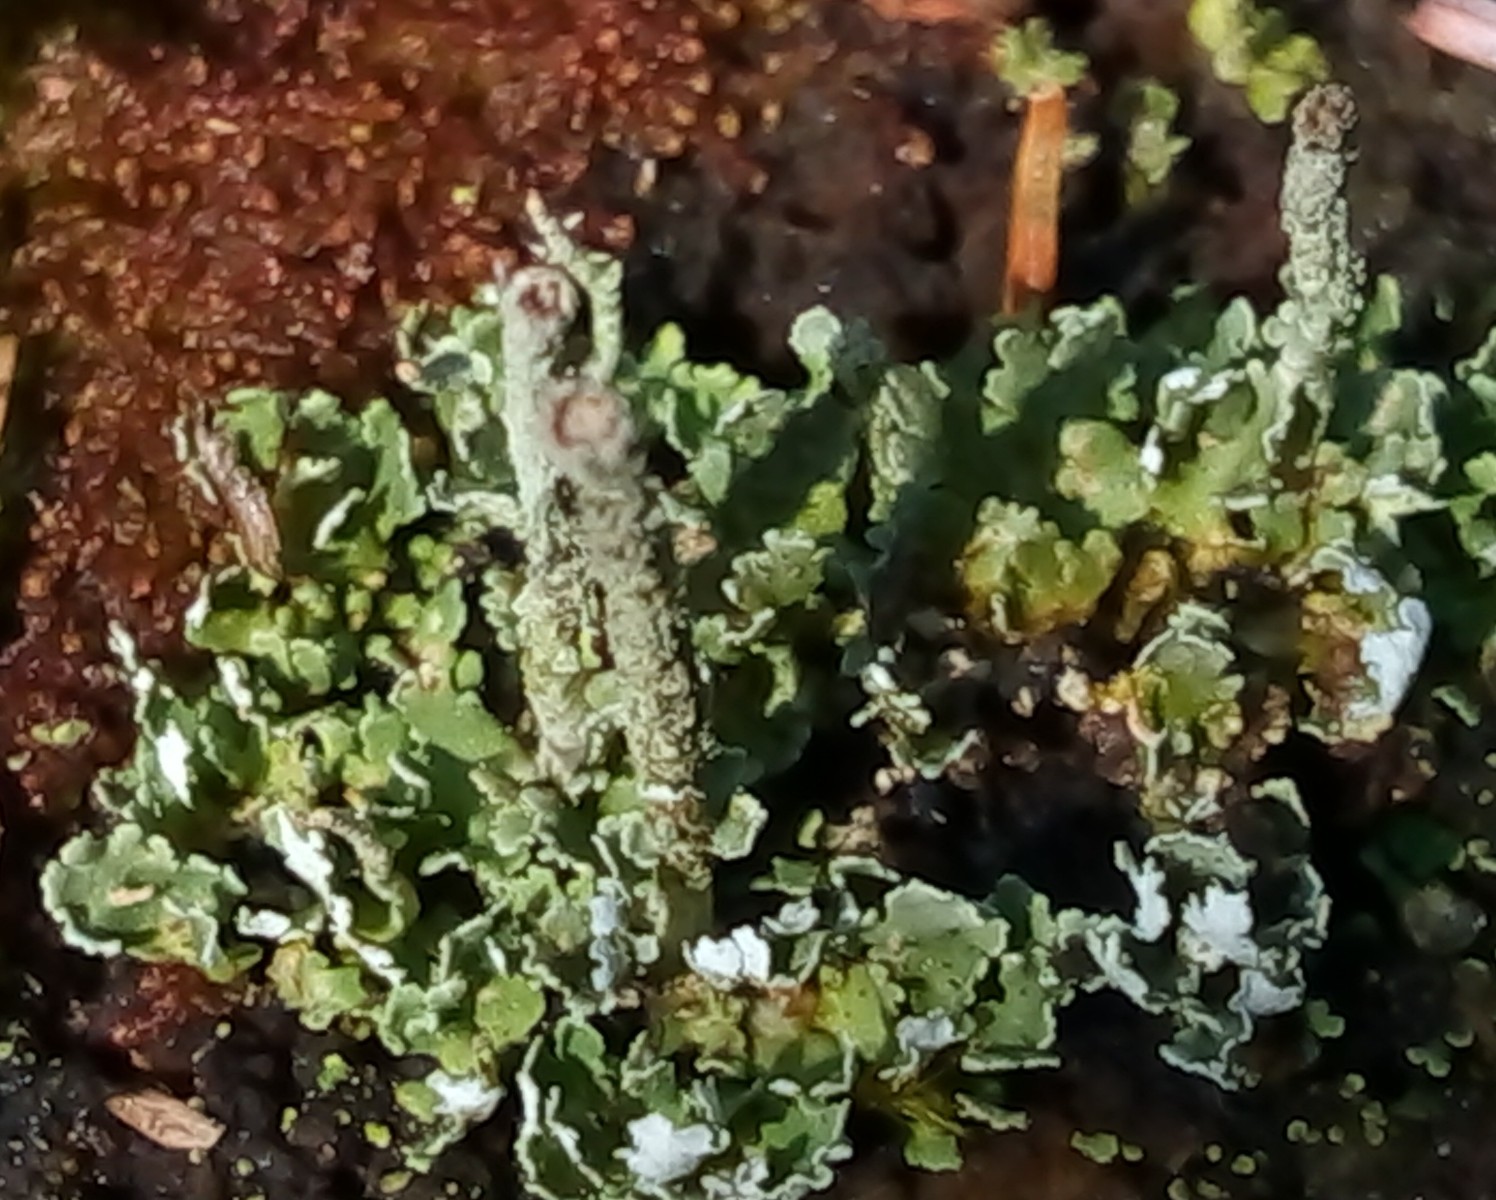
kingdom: Fungi
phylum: Ascomycota
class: Lecanoromycetes
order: Lecanorales
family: Cladoniaceae
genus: Cladonia
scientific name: Cladonia
